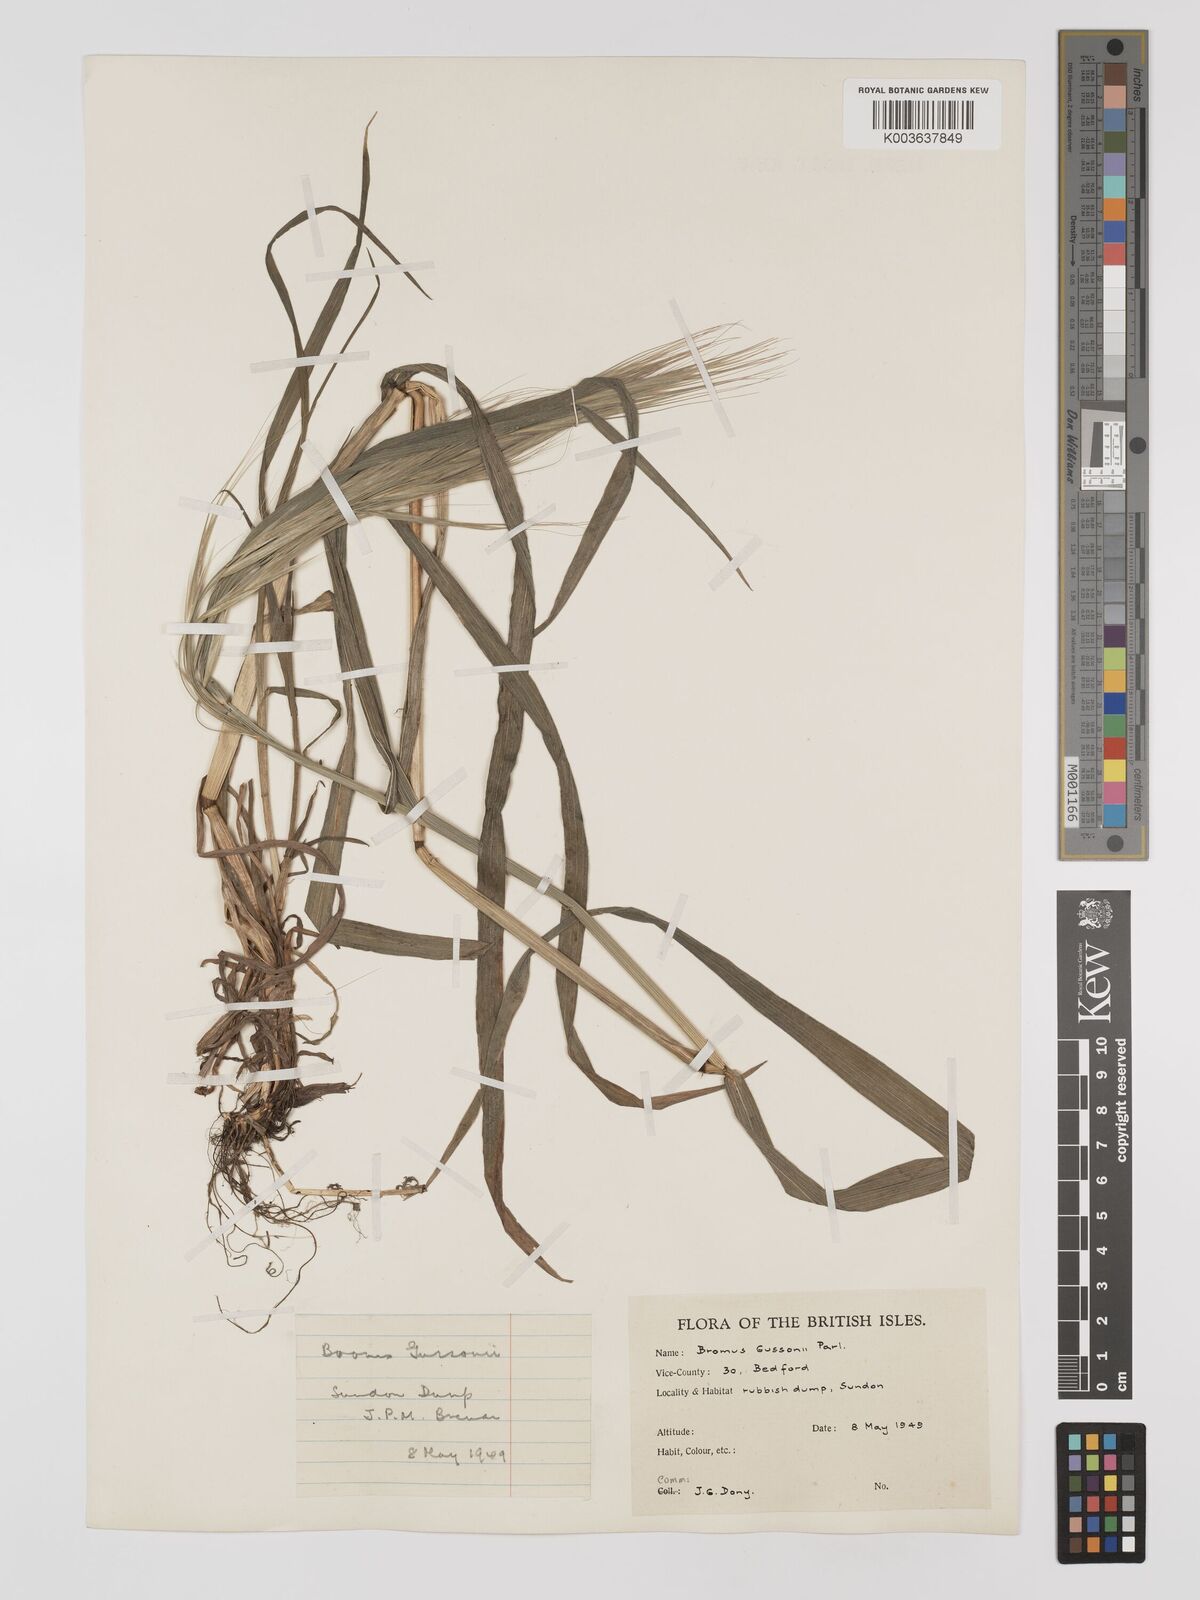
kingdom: Plantae
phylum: Tracheophyta
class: Liliopsida
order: Poales
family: Poaceae
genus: Bromus
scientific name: Bromus
